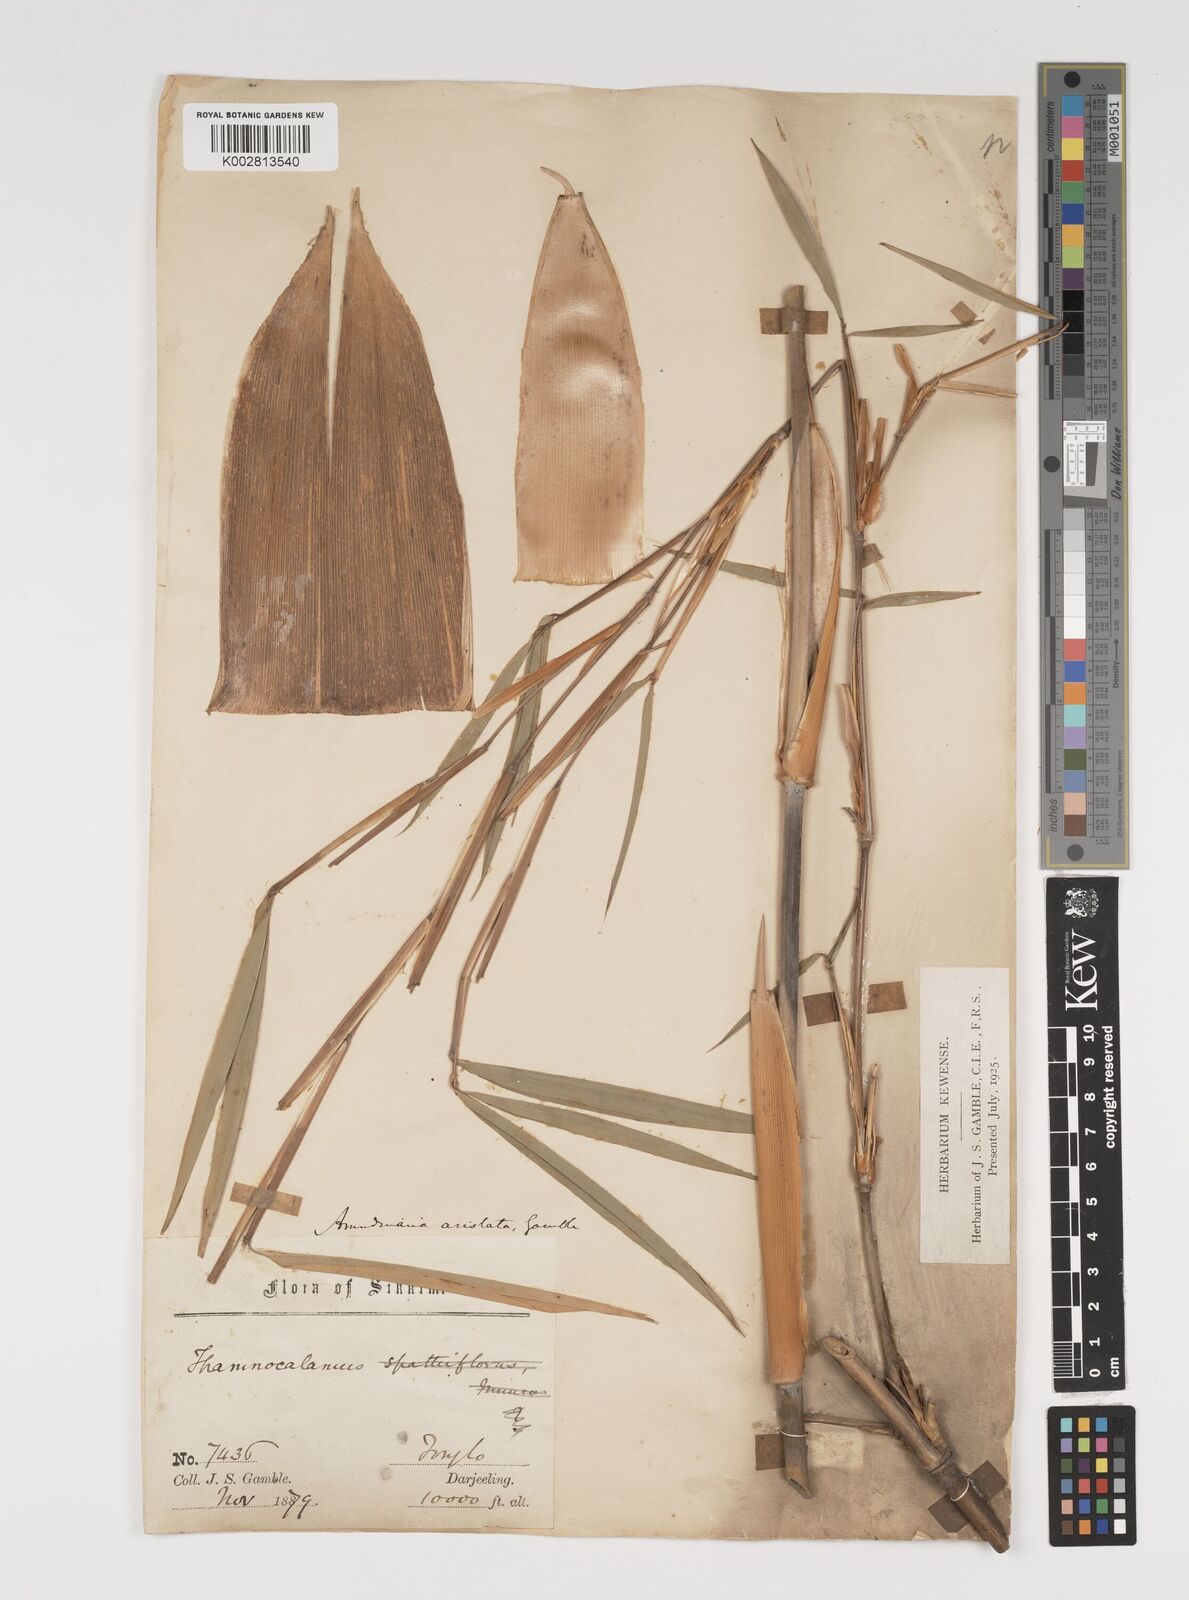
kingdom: Plantae
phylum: Tracheophyta
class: Liliopsida
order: Poales
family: Poaceae
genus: Thamnocalamus
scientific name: Thamnocalamus spathiflorus
